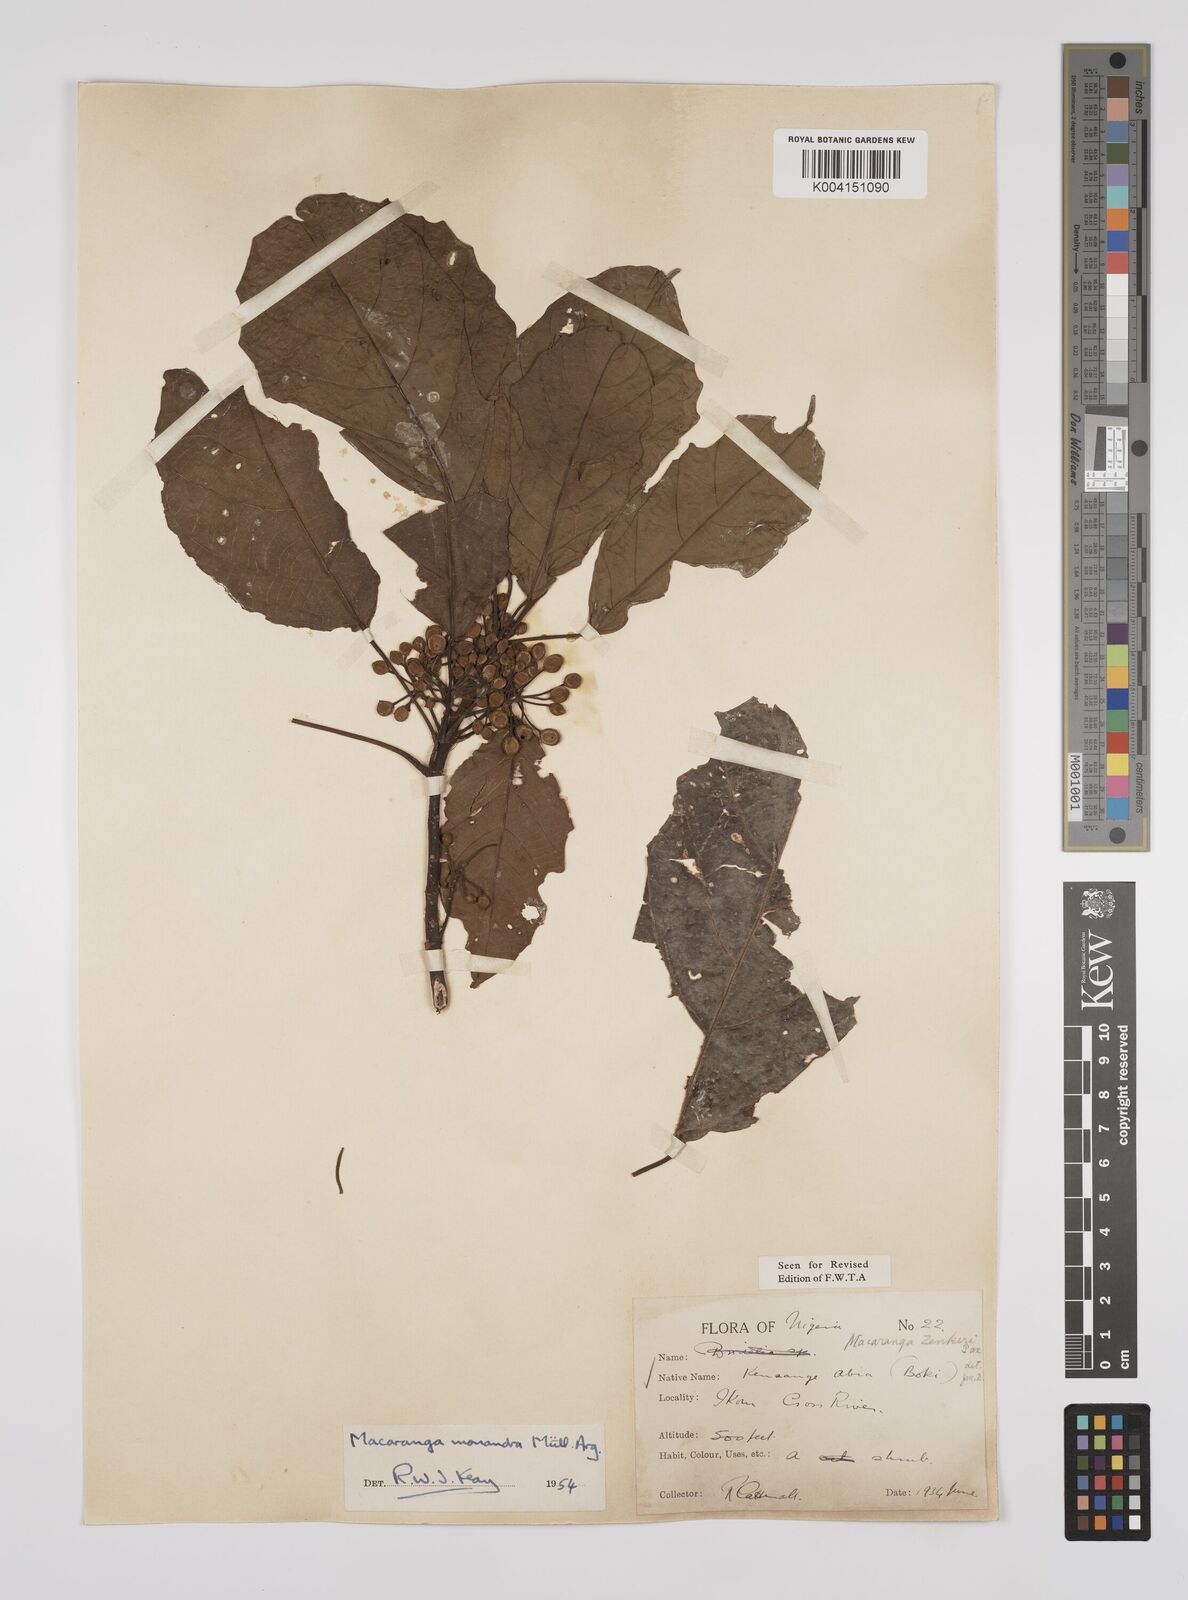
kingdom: Plantae
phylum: Tracheophyta
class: Magnoliopsida
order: Malpighiales
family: Euphorbiaceae
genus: Macaranga
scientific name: Macaranga monandra
